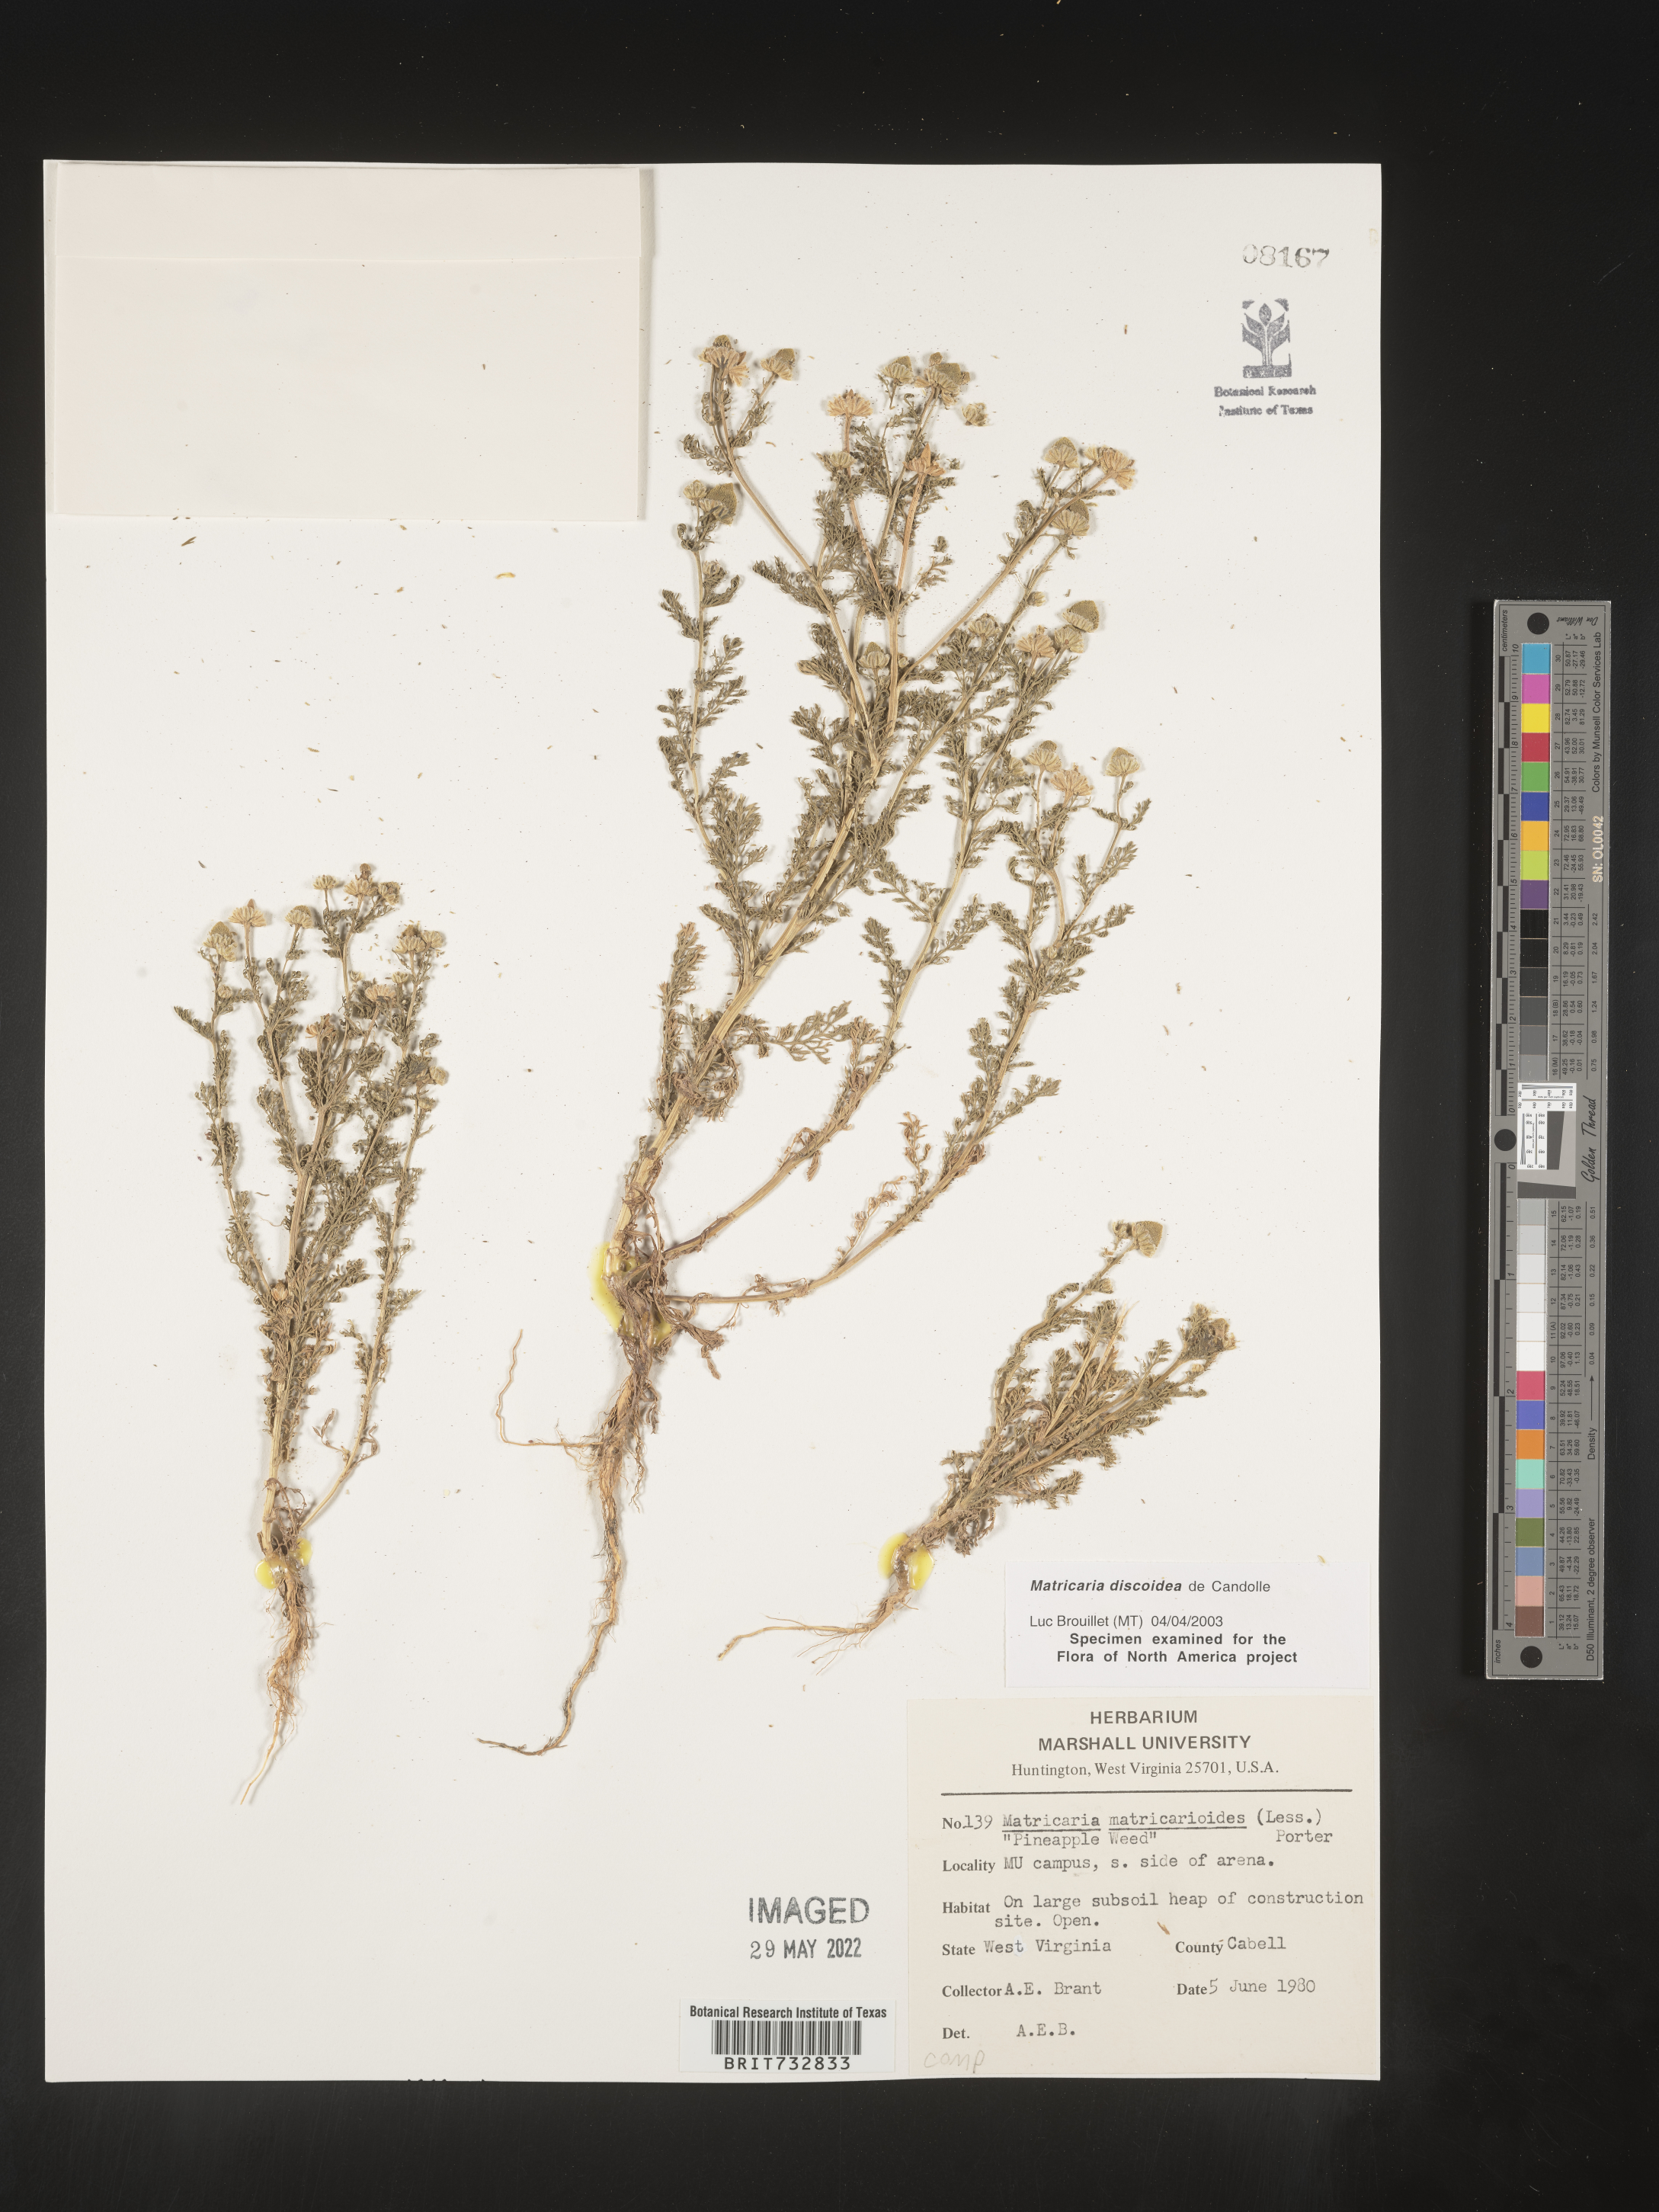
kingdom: Plantae
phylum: Tracheophyta
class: Magnoliopsida
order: Asterales
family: Asteraceae
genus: Matricaria
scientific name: Matricaria discoidea
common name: Disc mayweed
